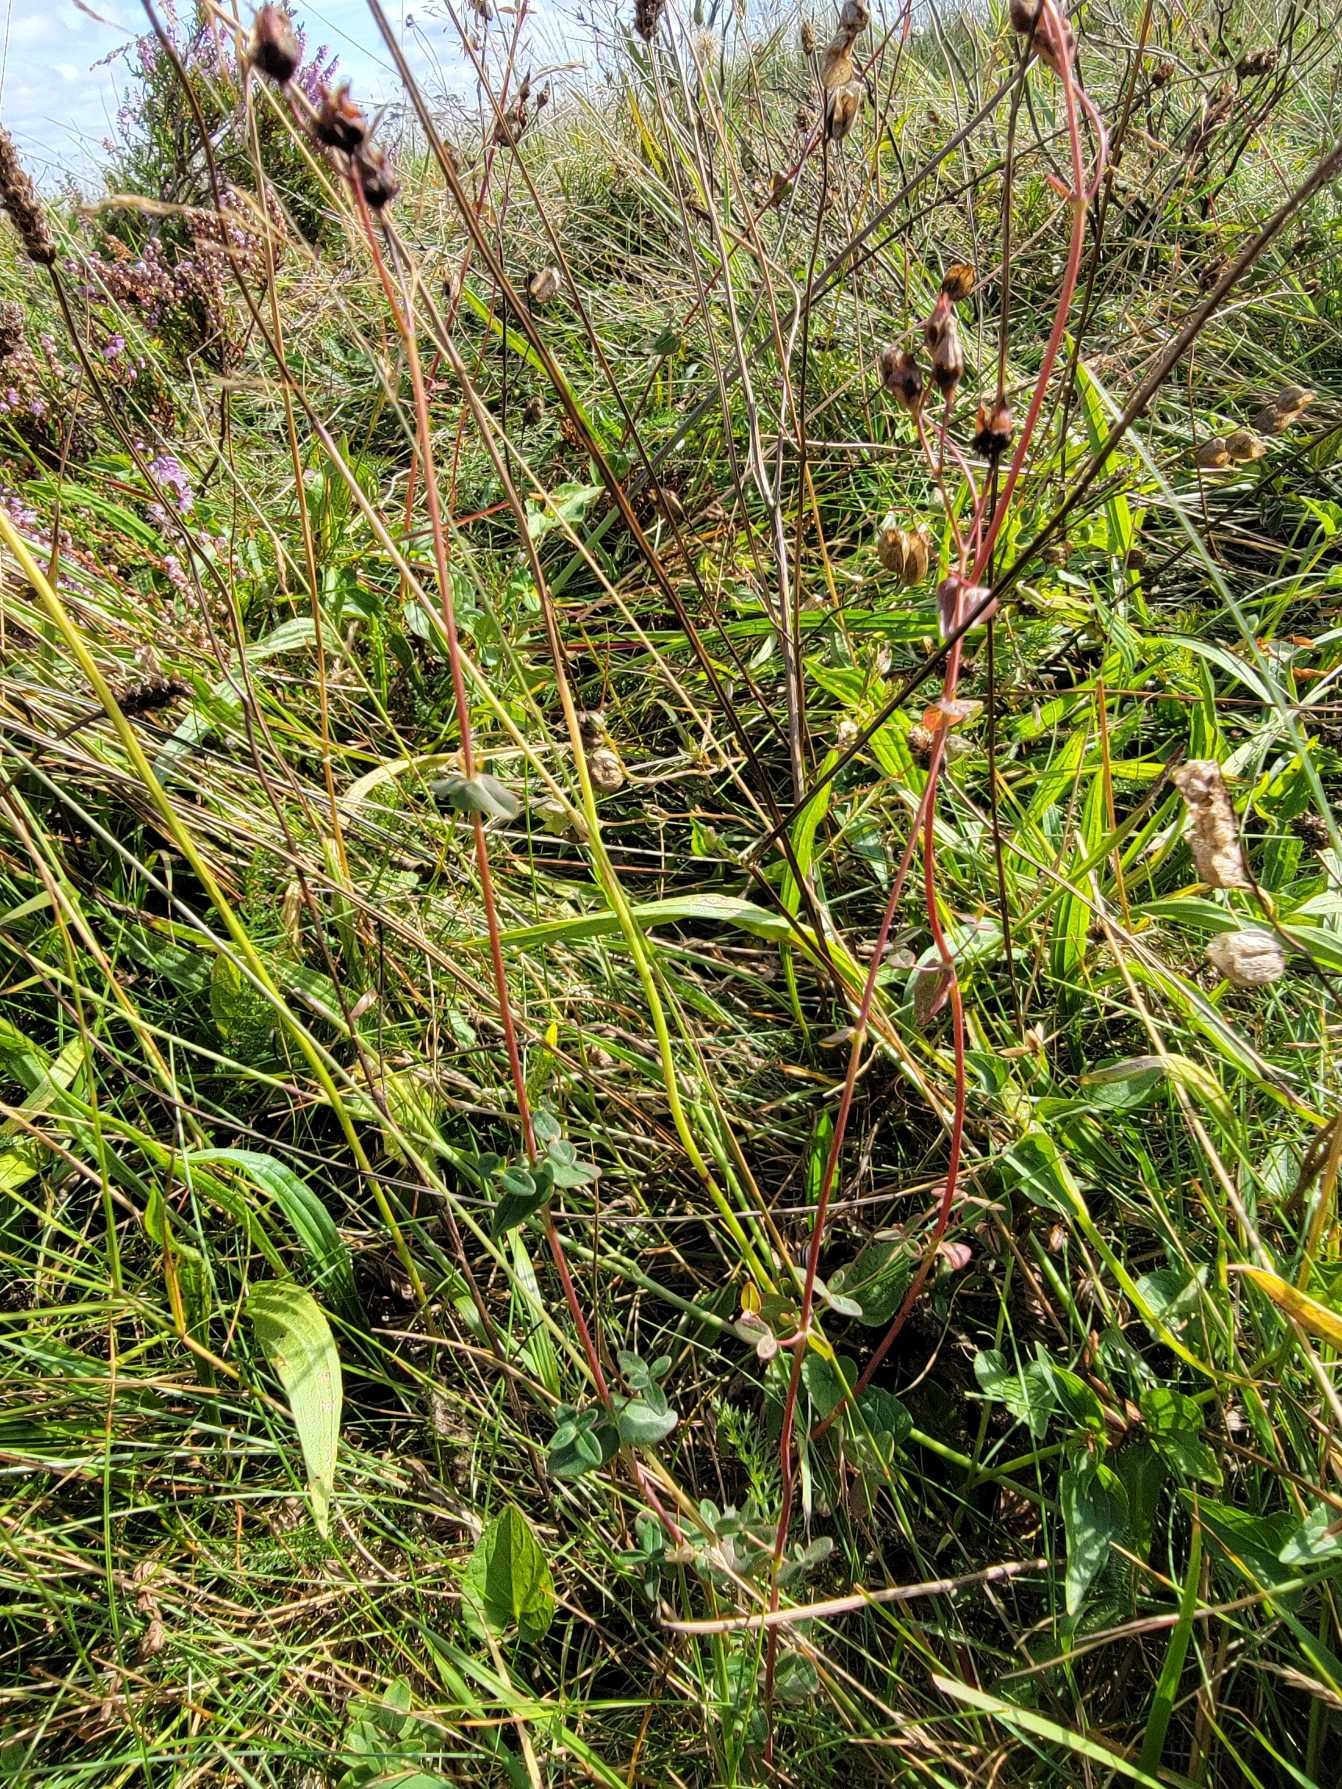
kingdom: Plantae
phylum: Tracheophyta
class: Magnoliopsida
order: Malpighiales
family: Hypericaceae
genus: Hypericum
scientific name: Hypericum pulchrum
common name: Smuk perikon
